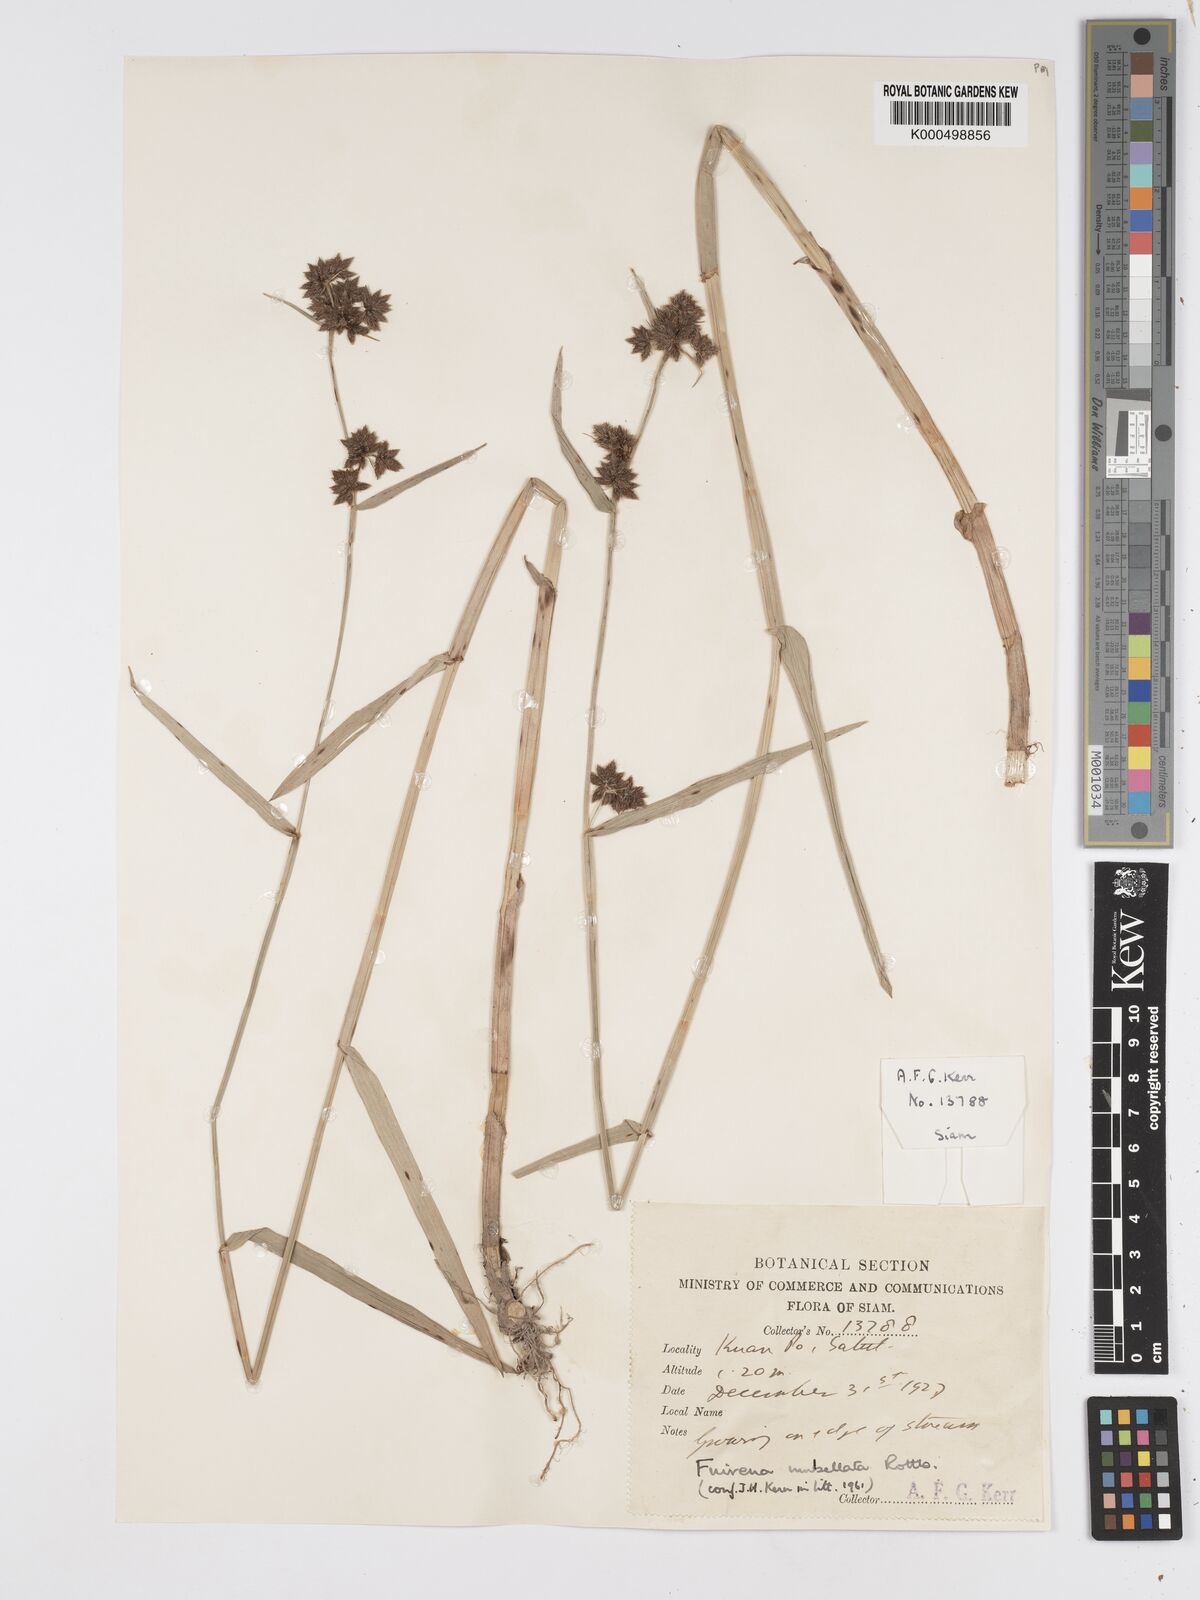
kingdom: Plantae
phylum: Tracheophyta
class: Liliopsida
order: Poales
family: Cyperaceae
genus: Fuirena
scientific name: Fuirena umbellata
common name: Yefen
